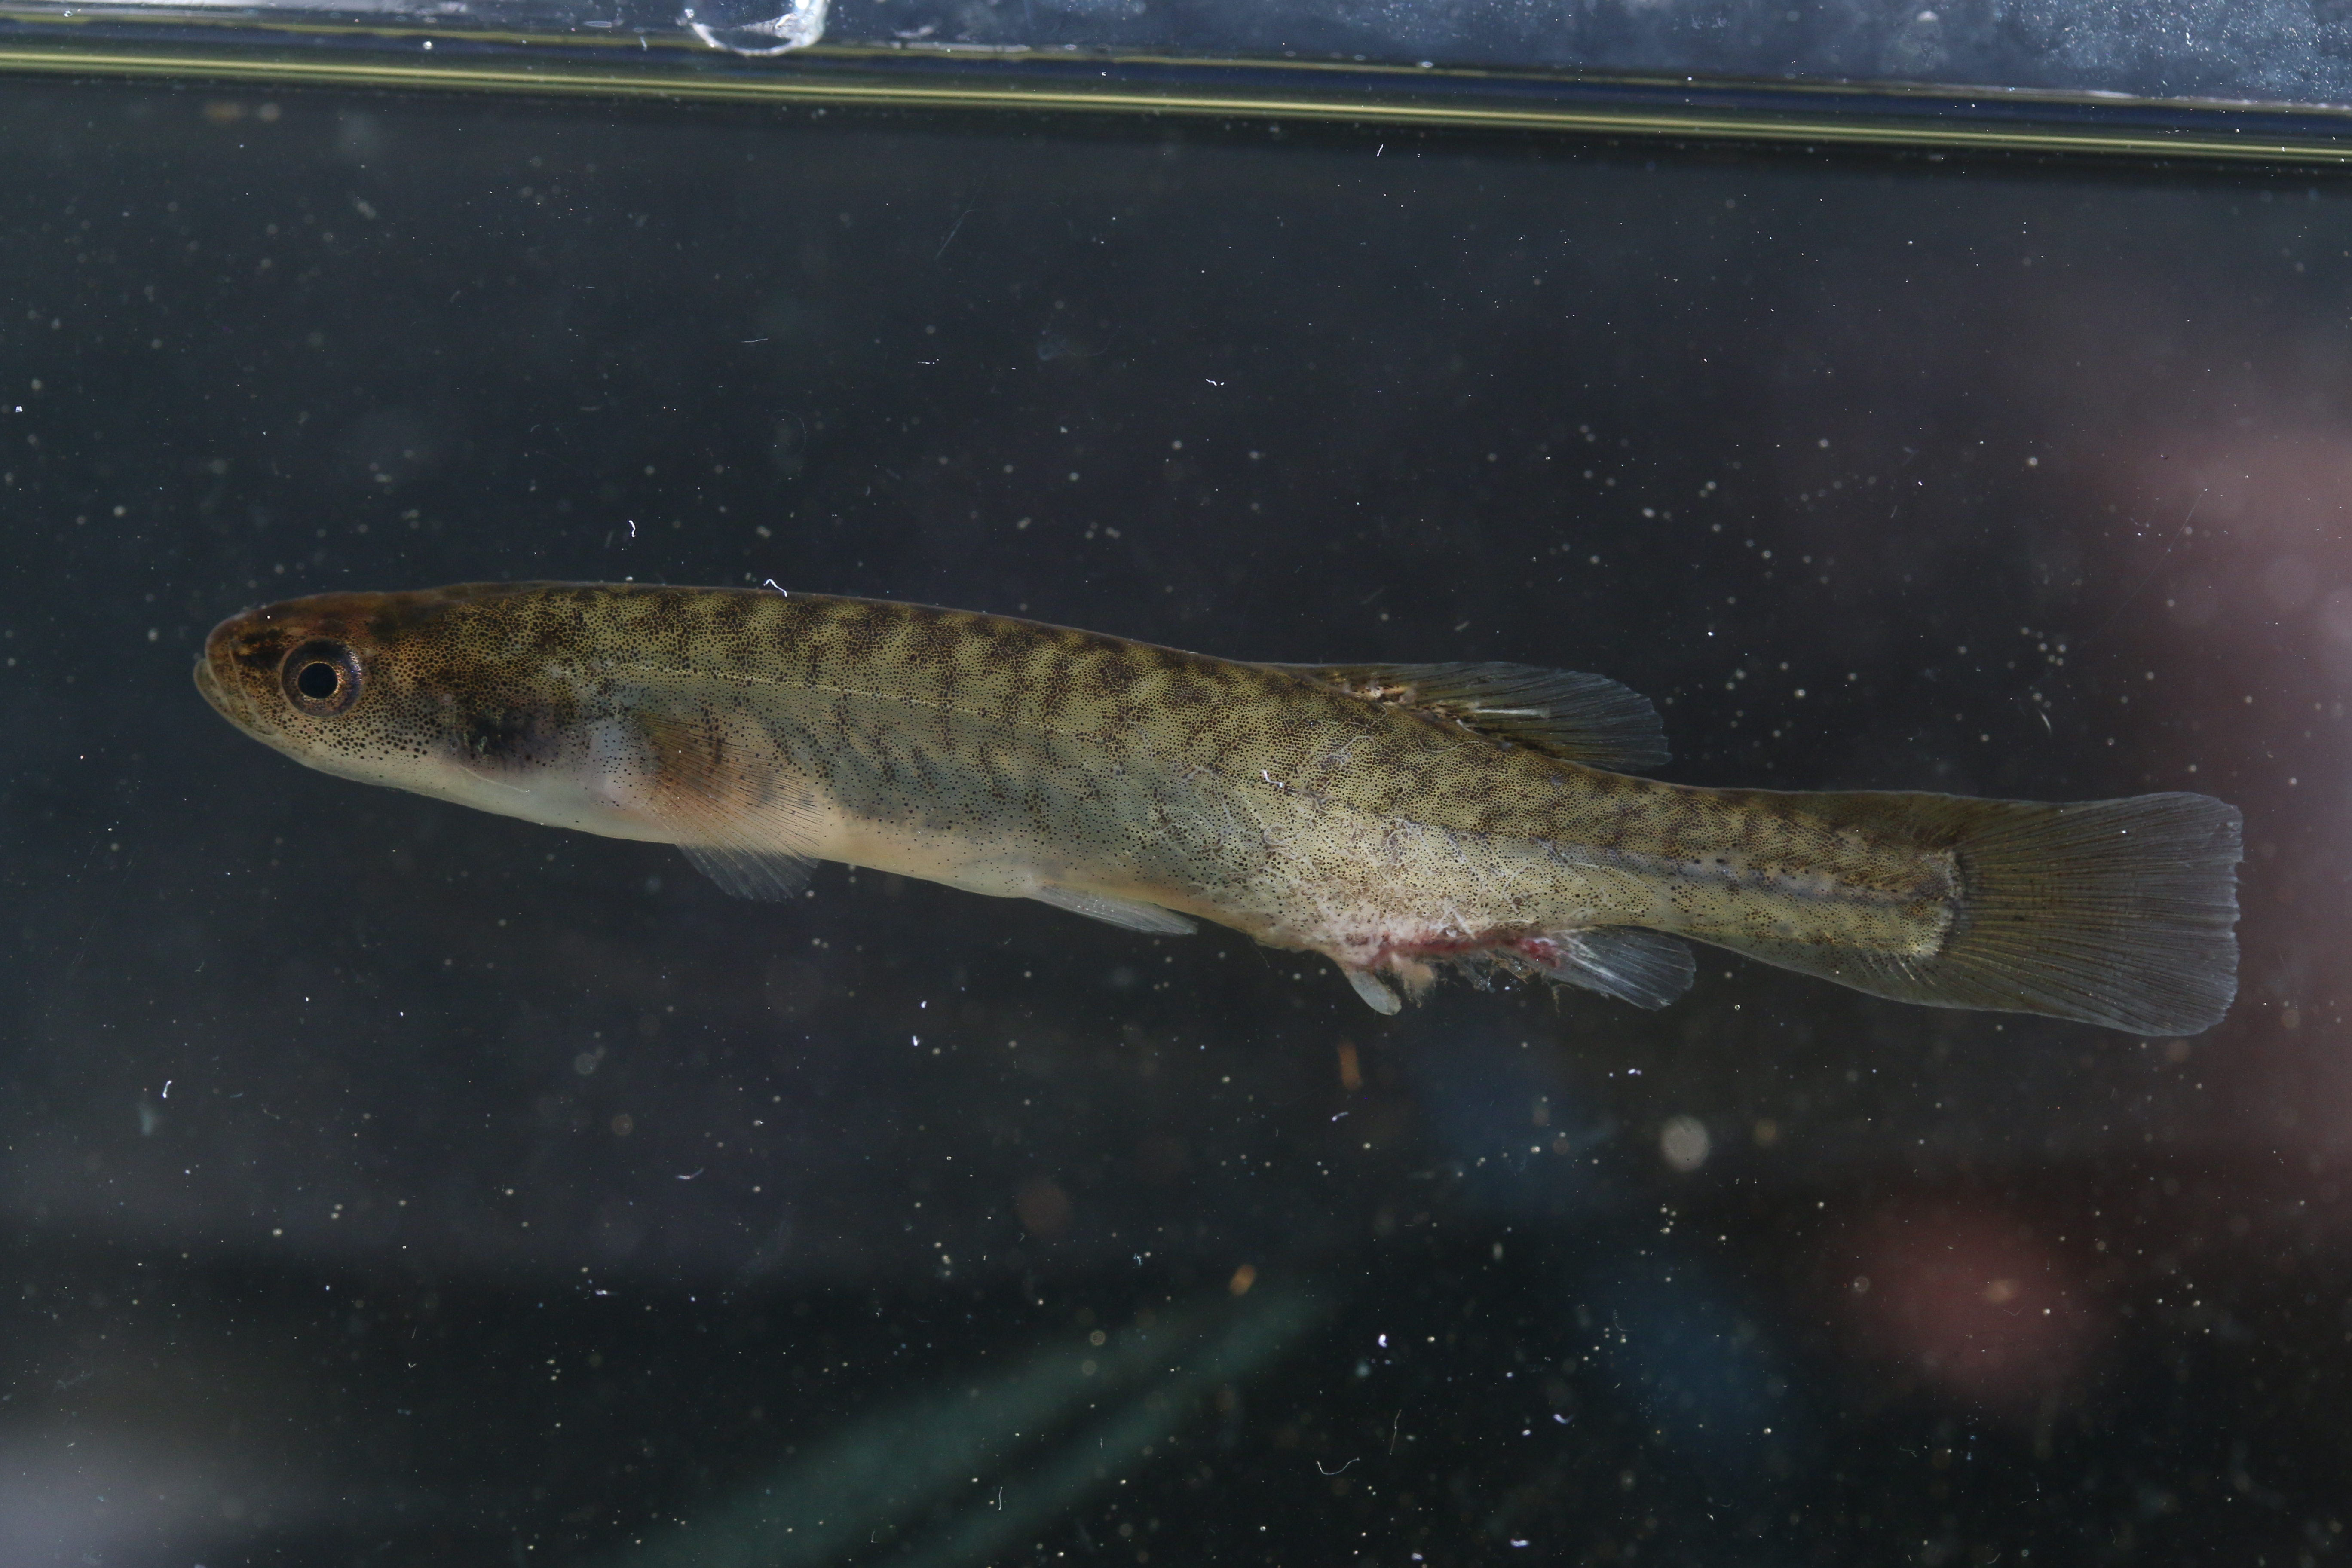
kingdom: Animalia
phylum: Chordata
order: Osmeriformes
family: Galaxiidae
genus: Galaxias
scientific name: Galaxias
